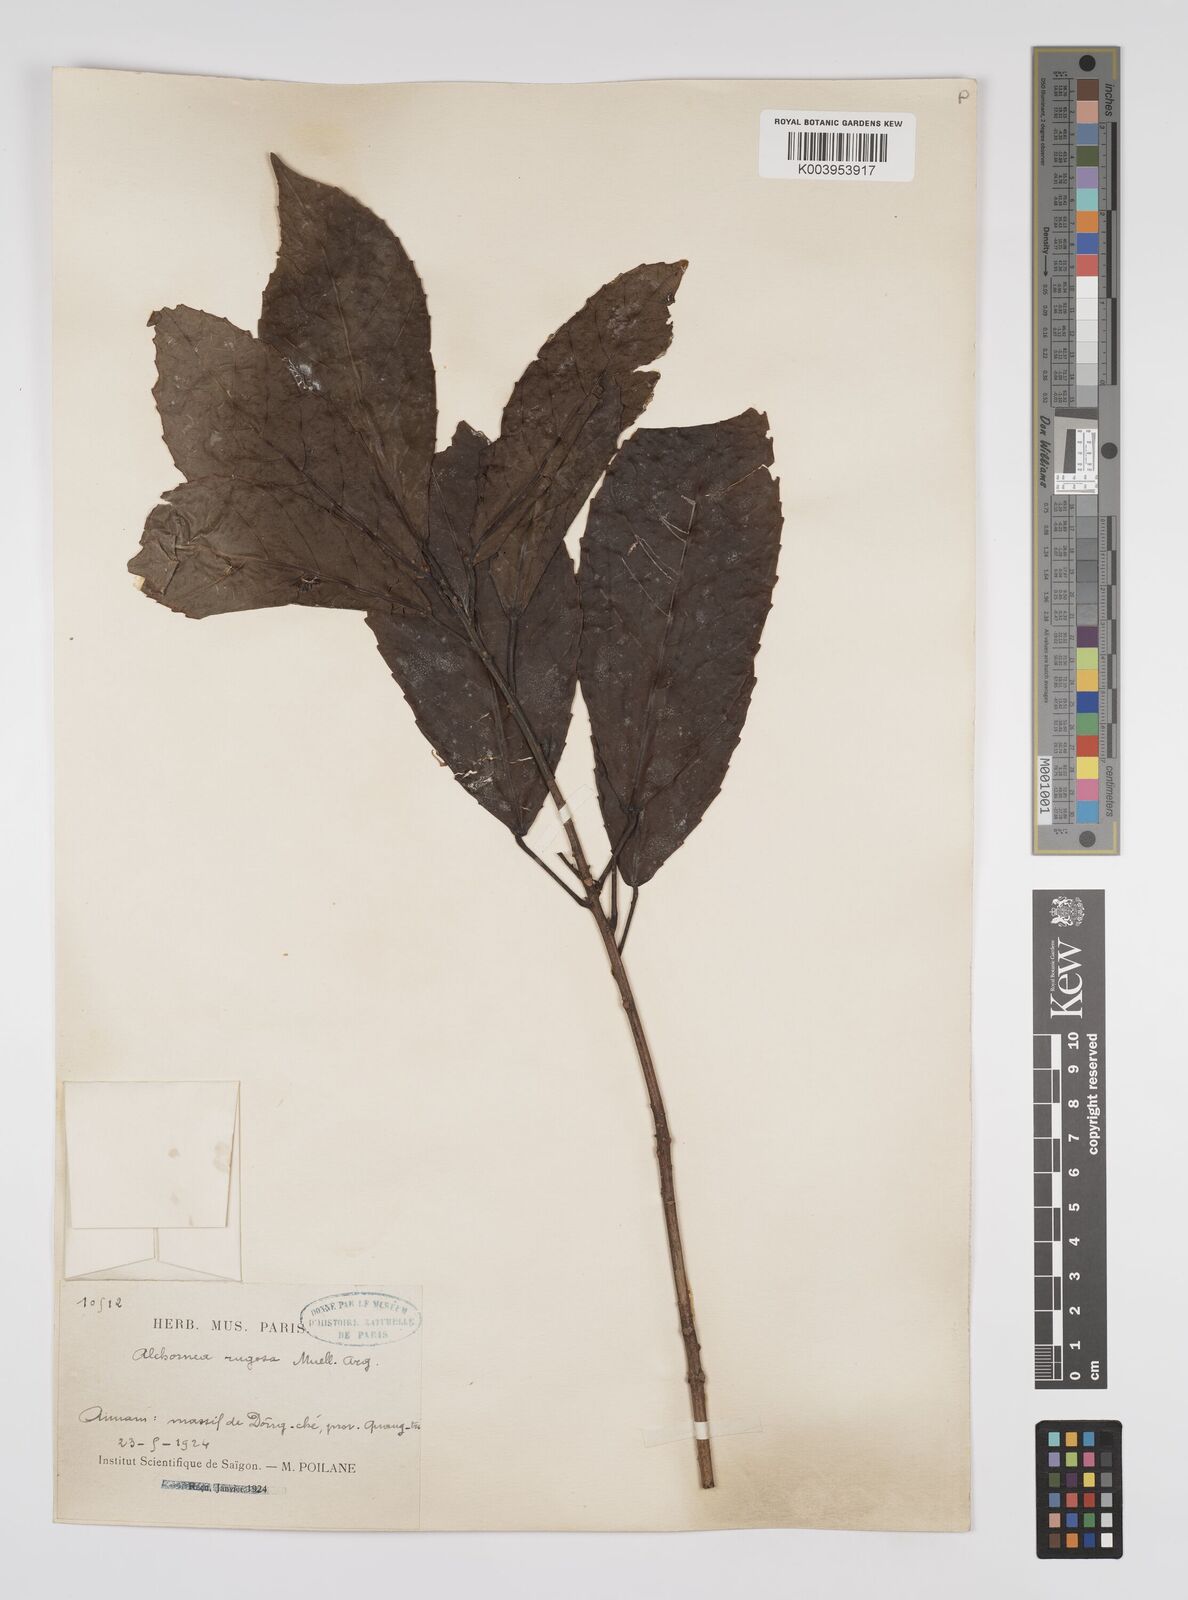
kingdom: Plantae
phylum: Tracheophyta
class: Magnoliopsida
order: Malpighiales
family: Euphorbiaceae
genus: Alchornea
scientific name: Alchornea rugosa
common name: Alchorntree
